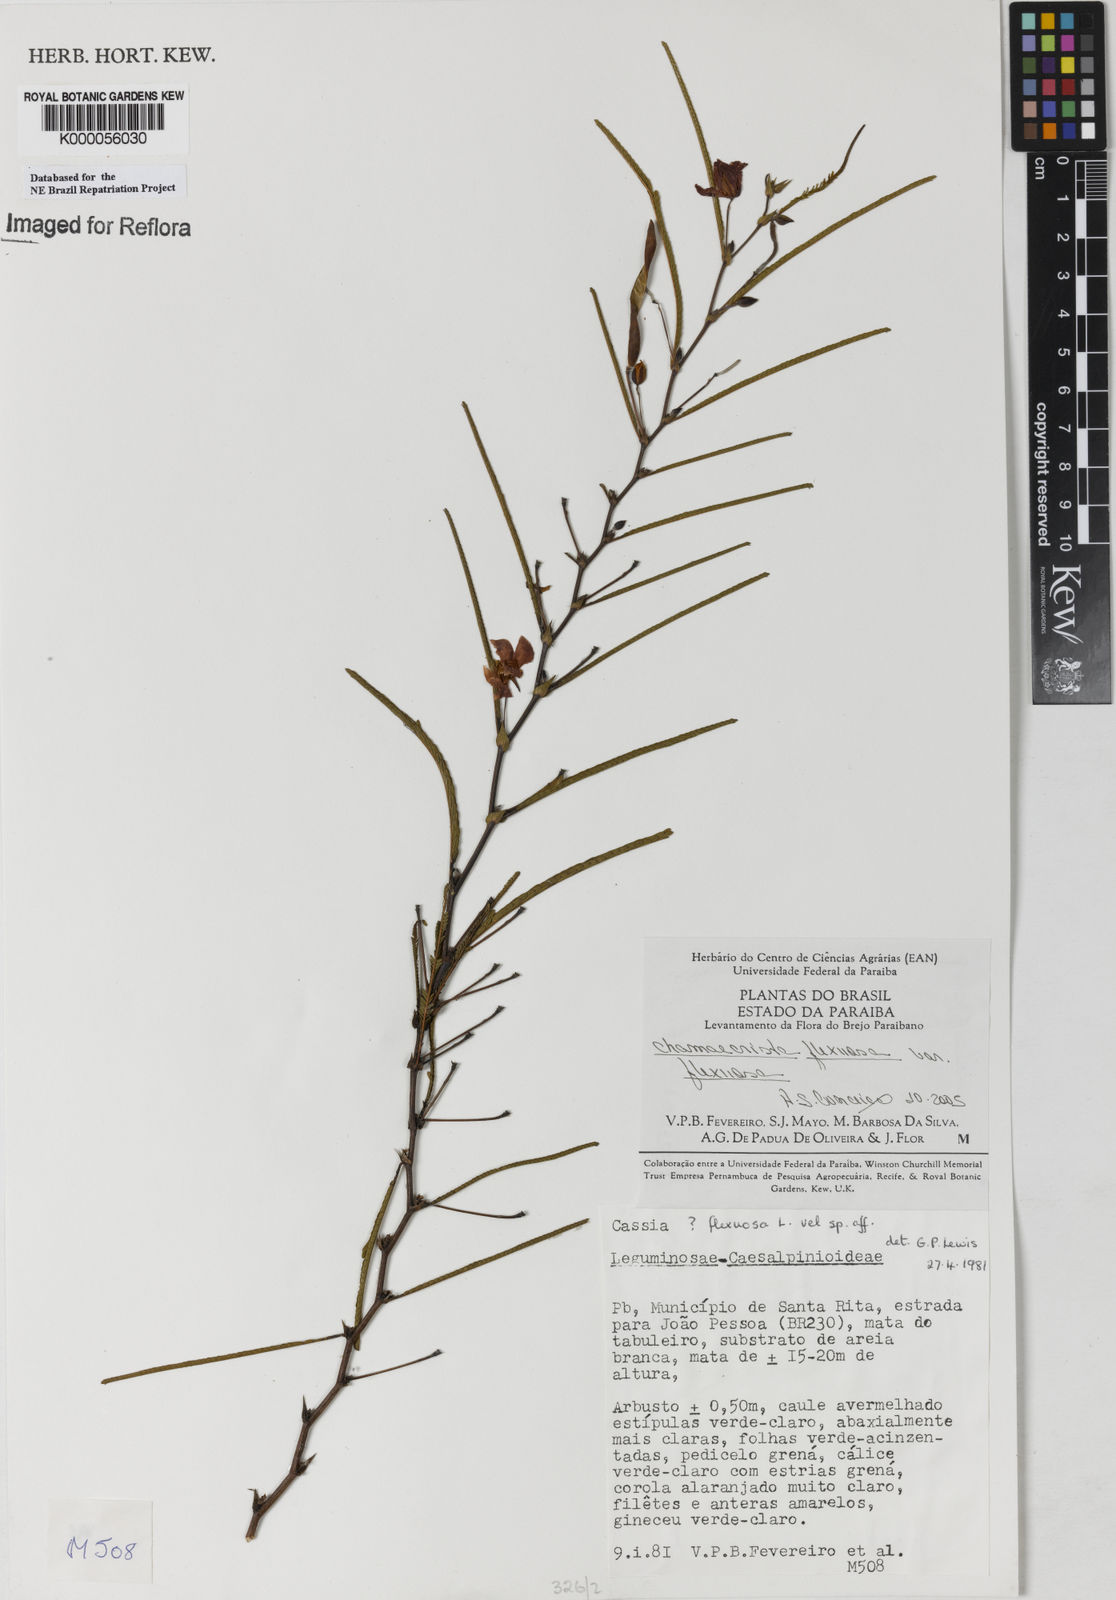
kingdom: Plantae
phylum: Tracheophyta
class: Magnoliopsida
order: Fabales
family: Fabaceae
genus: Chamaecrista
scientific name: Chamaecrista flexuosa
